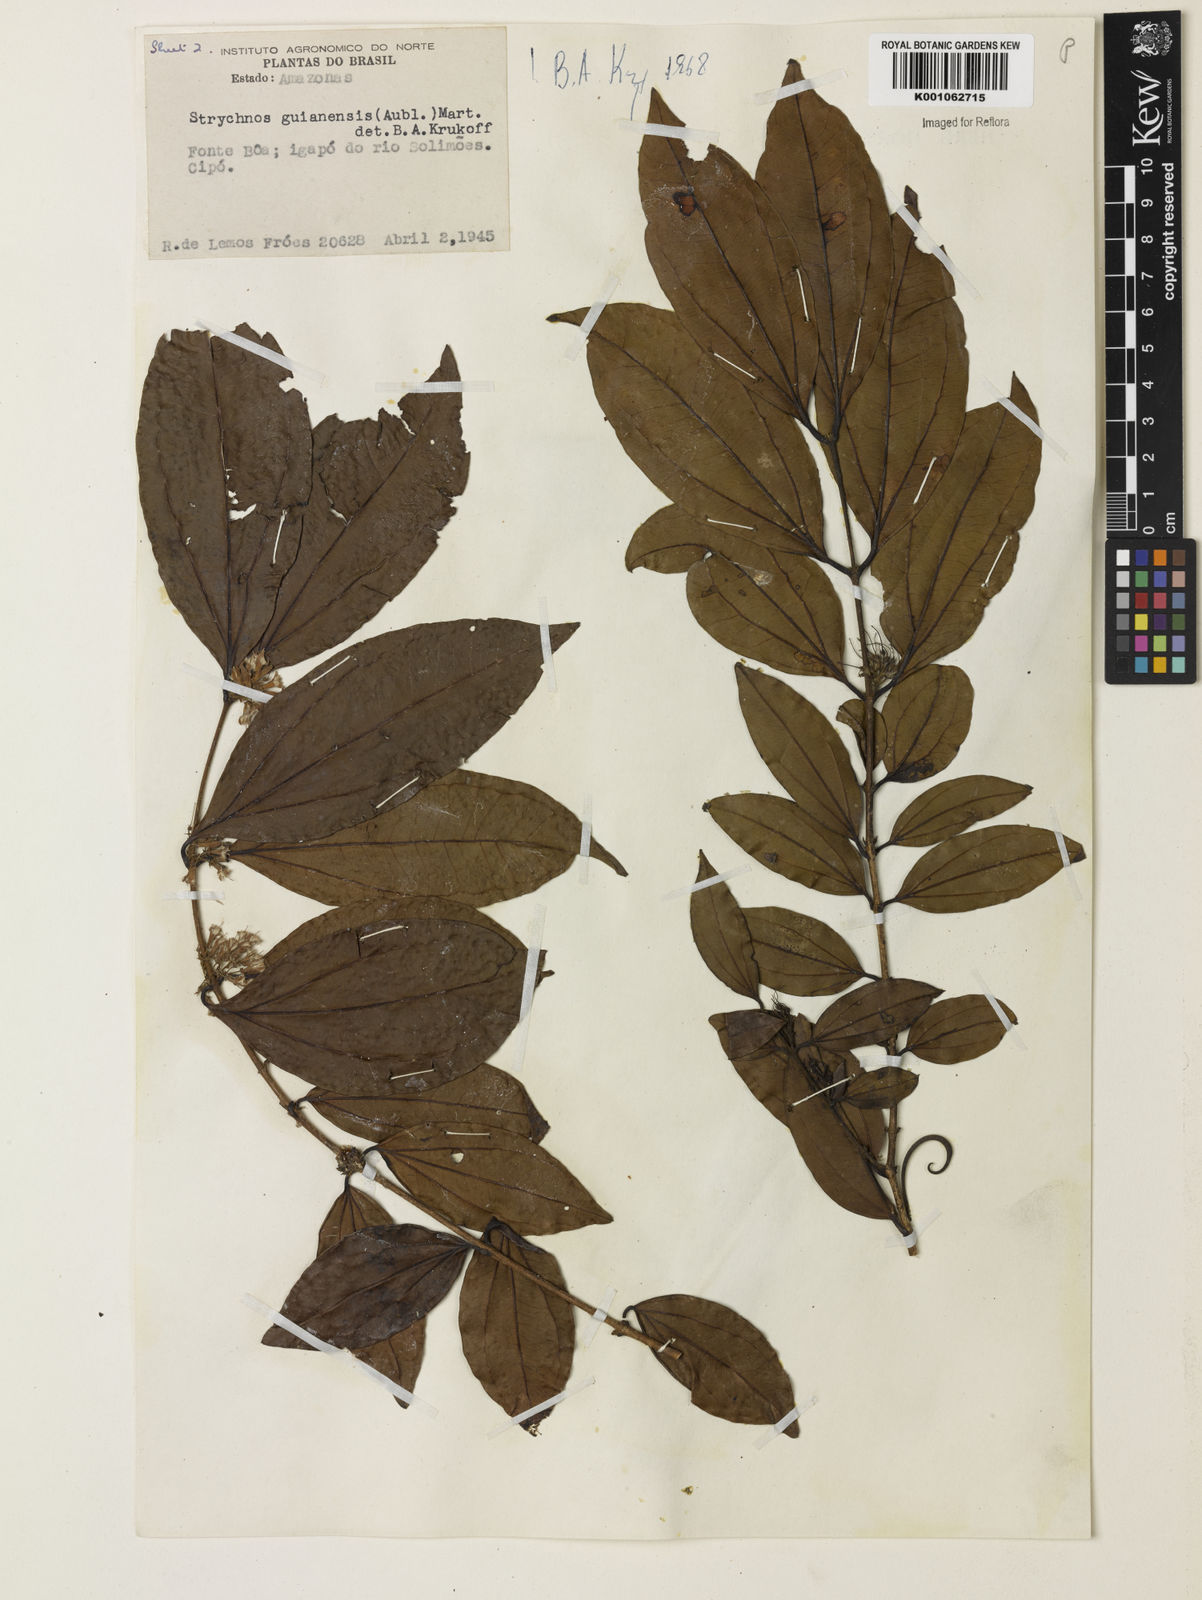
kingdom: Plantae
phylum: Tracheophyta
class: Magnoliopsida
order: Gentianales
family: Loganiaceae
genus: Strychnos
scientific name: Strychnos guianensis
